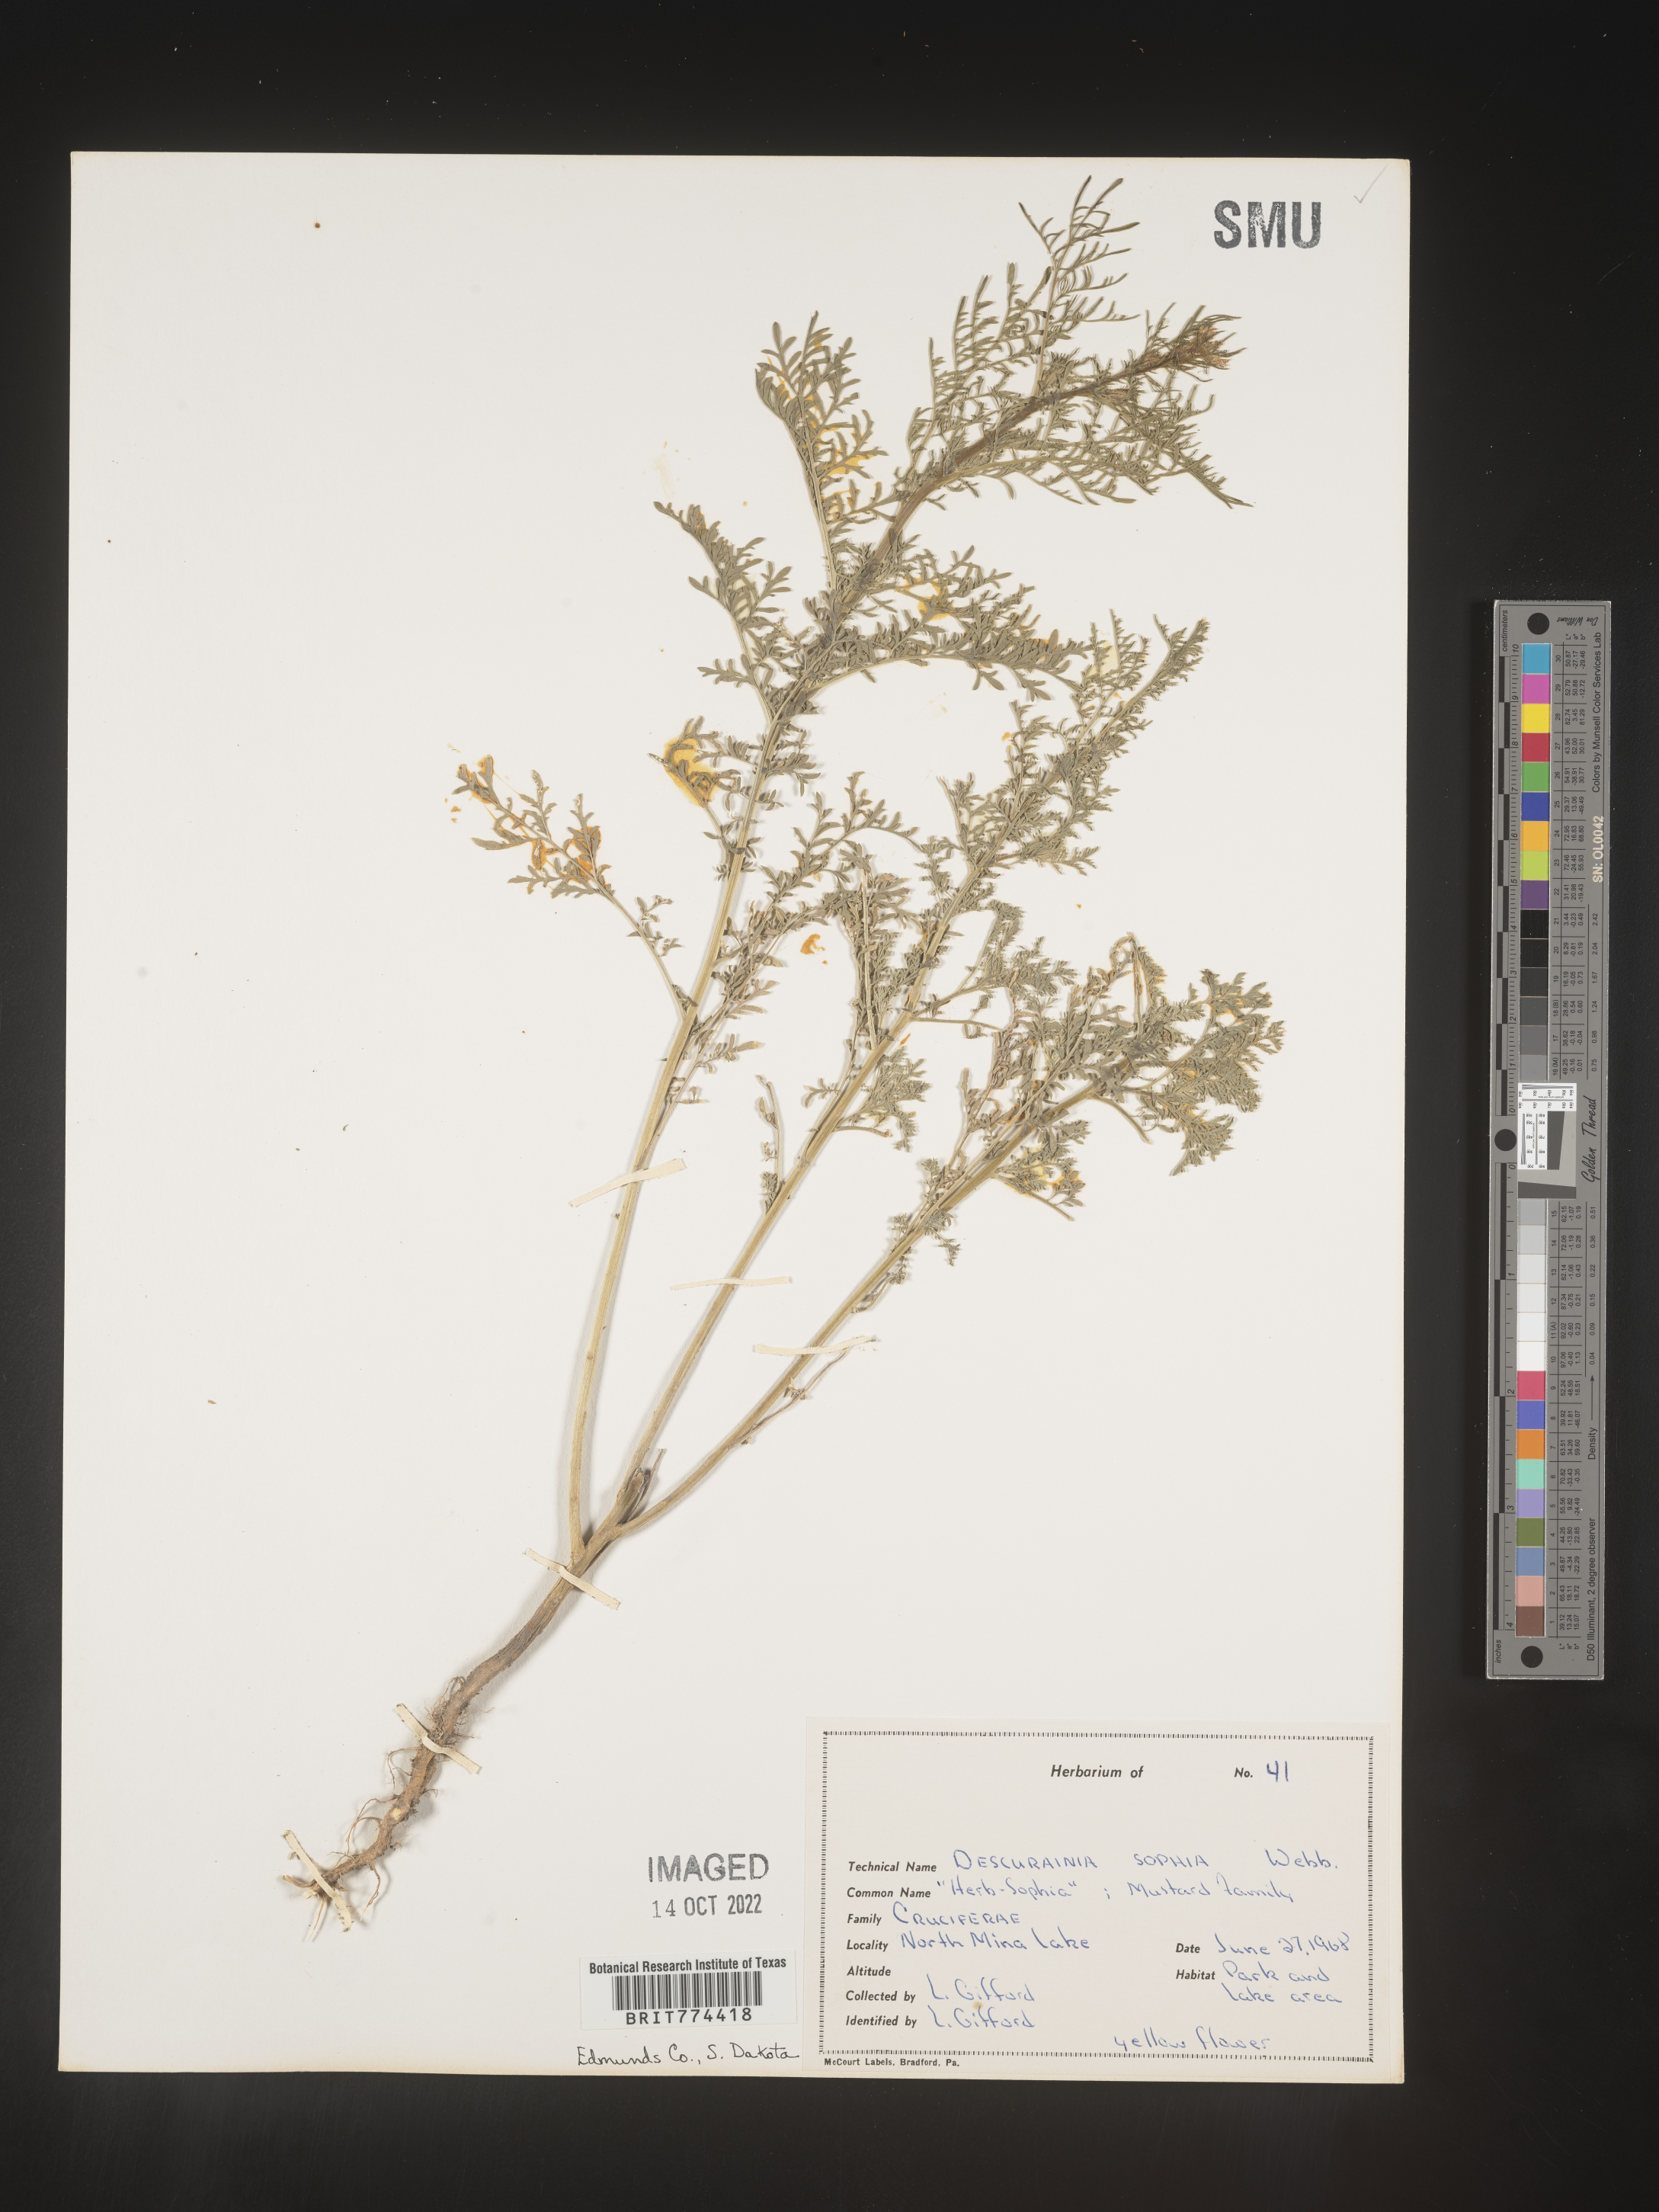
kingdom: Plantae
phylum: Tracheophyta
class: Magnoliopsida
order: Brassicales
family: Brassicaceae
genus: Descurainia
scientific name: Descurainia sophia
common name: Flixweed
